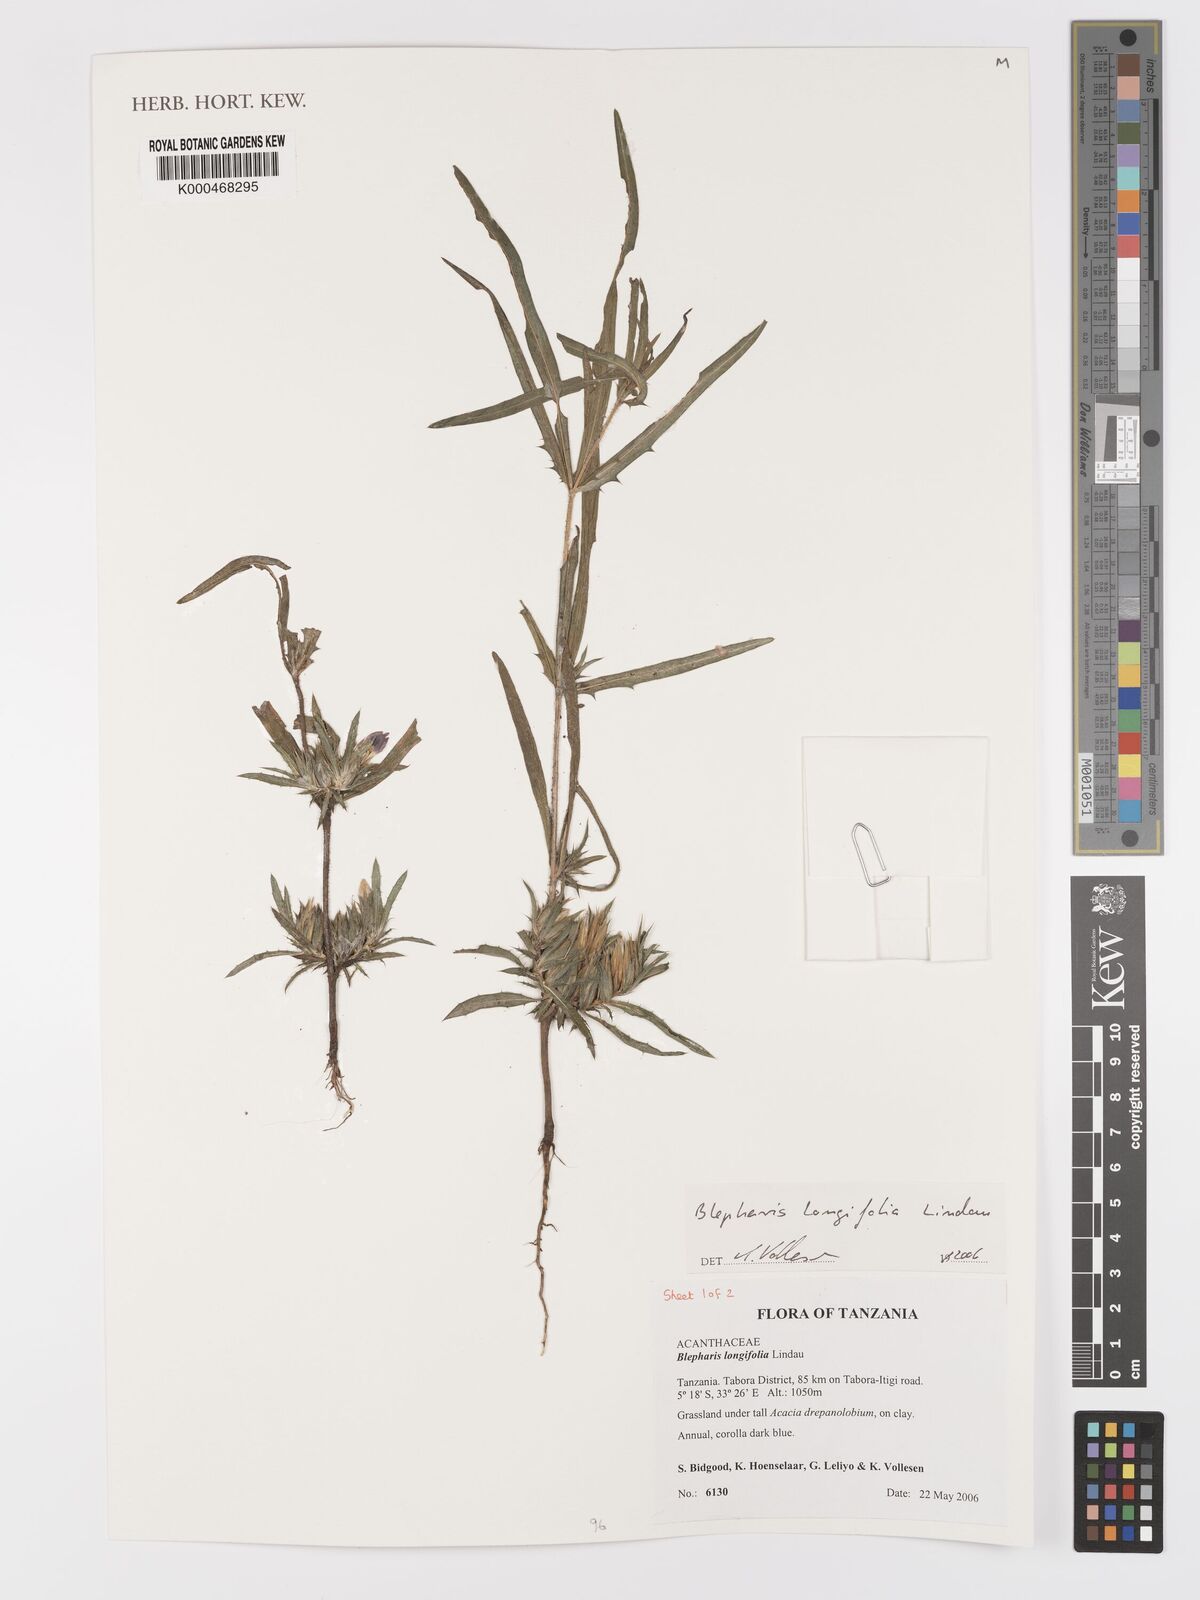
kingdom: Plantae
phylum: Tracheophyta
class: Magnoliopsida
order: Lamiales
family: Acanthaceae
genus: Blepharis
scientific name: Blepharis longifolia
